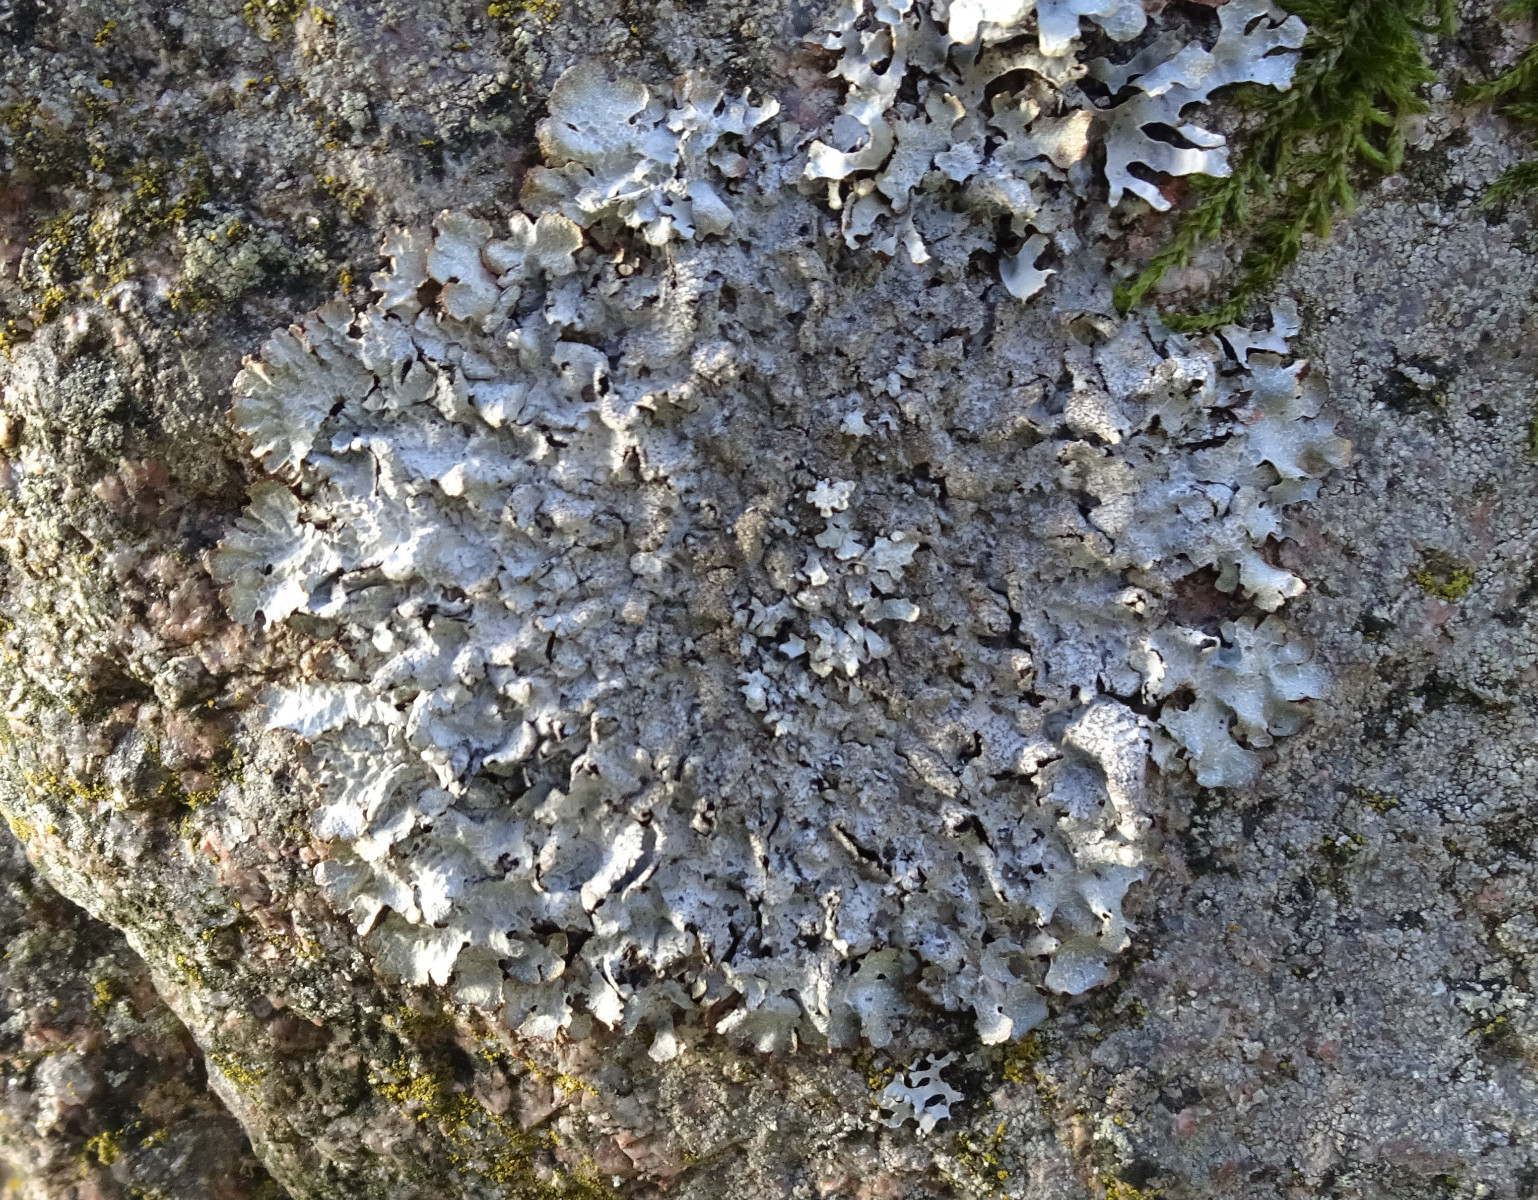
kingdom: Fungi
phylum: Ascomycota
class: Lecanoromycetes
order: Lecanorales
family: Parmeliaceae
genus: Parmelia
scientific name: Parmelia saxatilis
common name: farve-skållav
